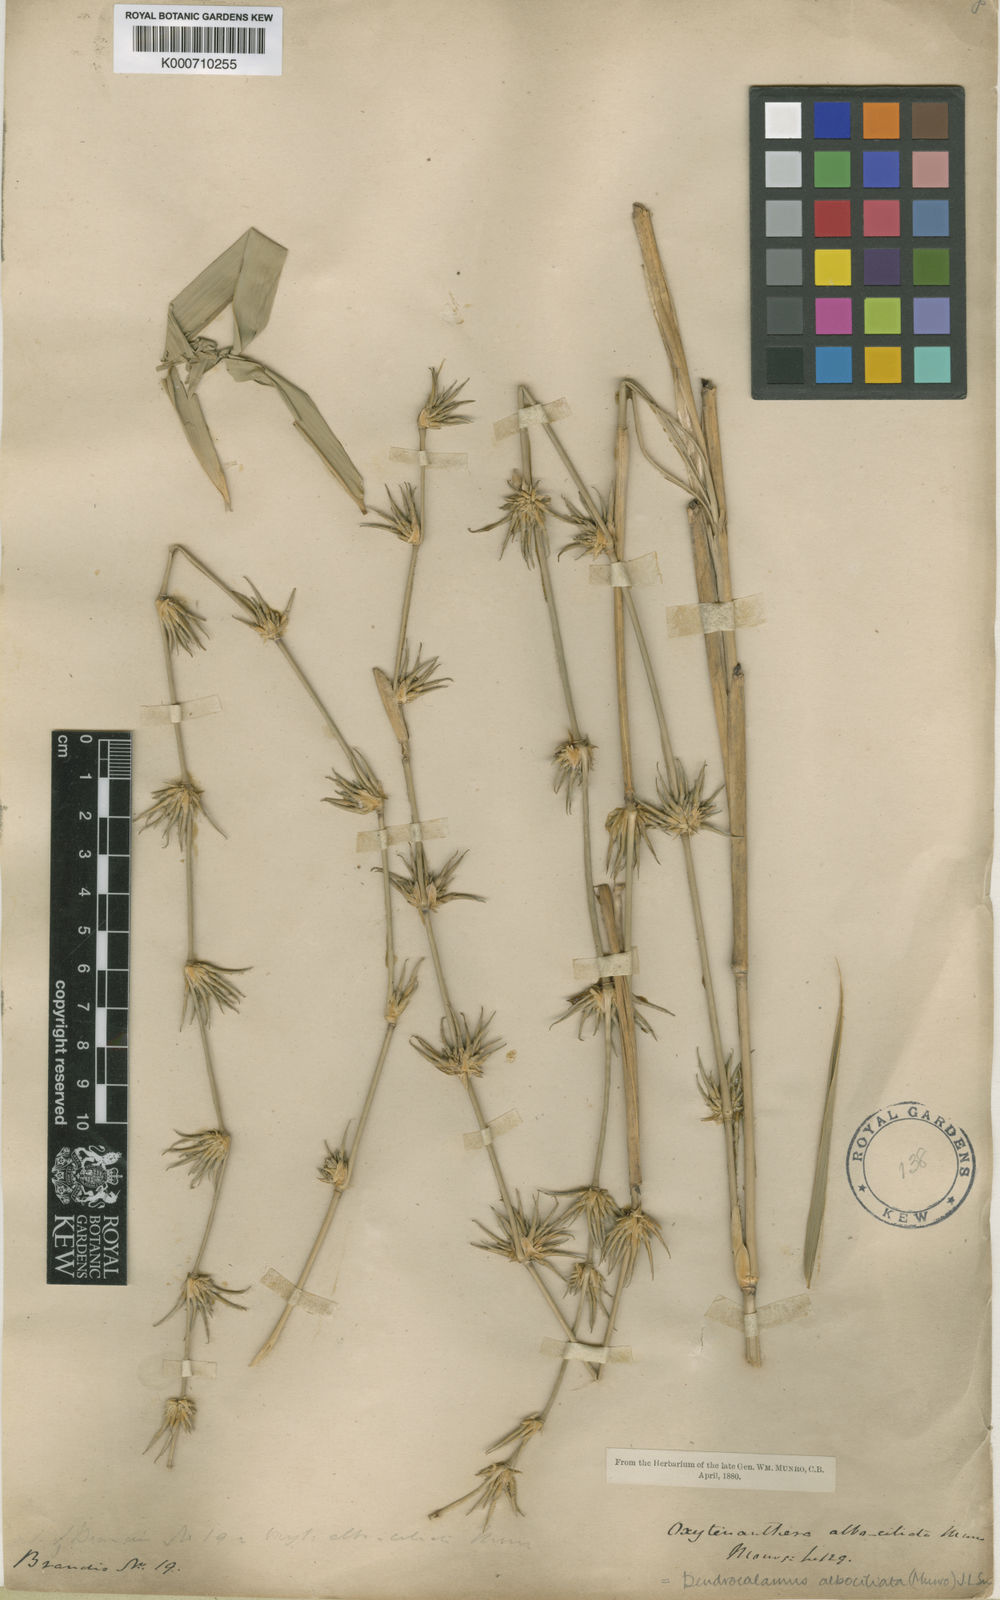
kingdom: Plantae
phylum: Tracheophyta
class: Liliopsida
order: Poales
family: Poaceae
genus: Gigantochloa
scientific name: Gigantochloa albociliata
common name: White-fringe gigantochloa
